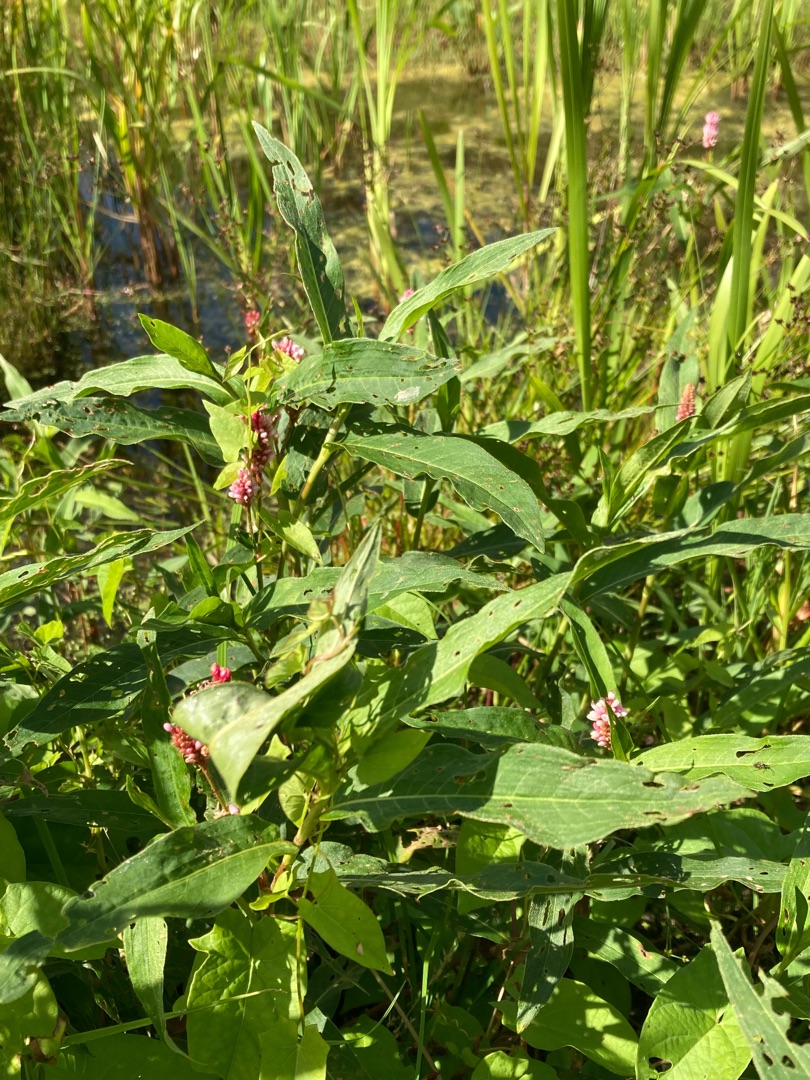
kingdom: Plantae
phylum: Tracheophyta
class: Magnoliopsida
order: Caryophyllales
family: Polygonaceae
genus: Persicaria
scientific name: Persicaria amphibia
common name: Vand-pileurt
